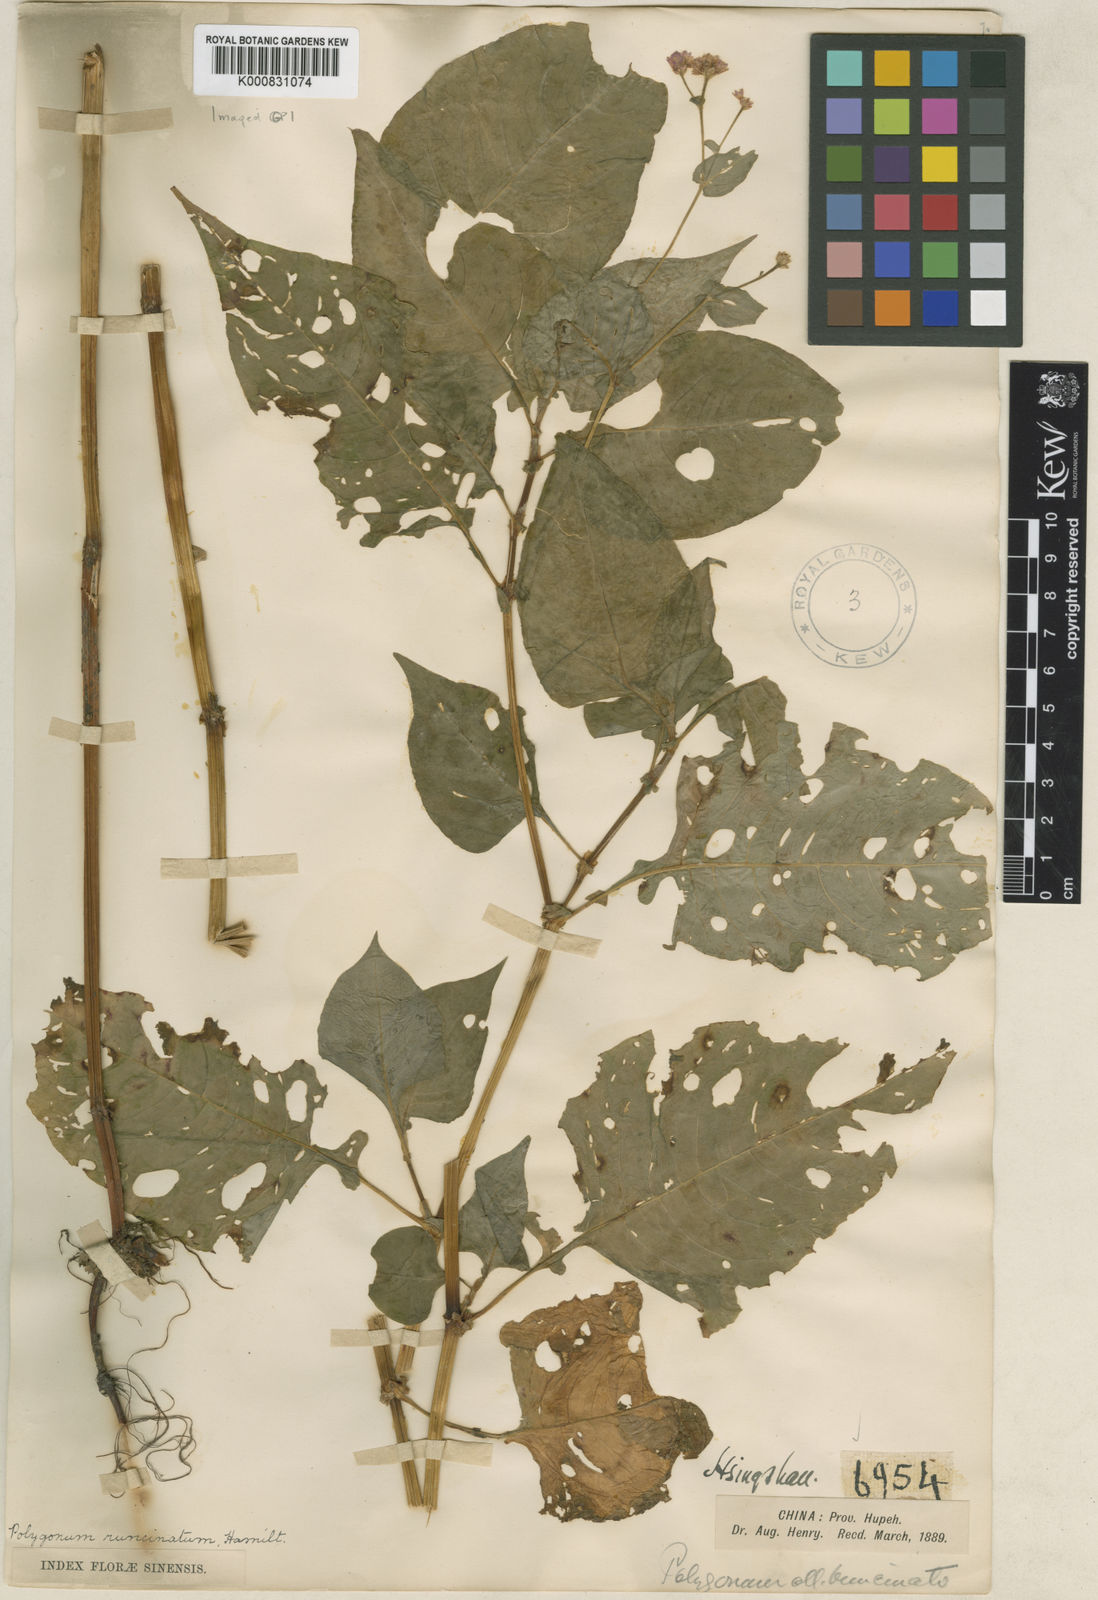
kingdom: Plantae
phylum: Tracheophyta
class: Magnoliopsida
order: Caryophyllales
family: Polygonaceae
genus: Persicaria
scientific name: Persicaria runcinata
